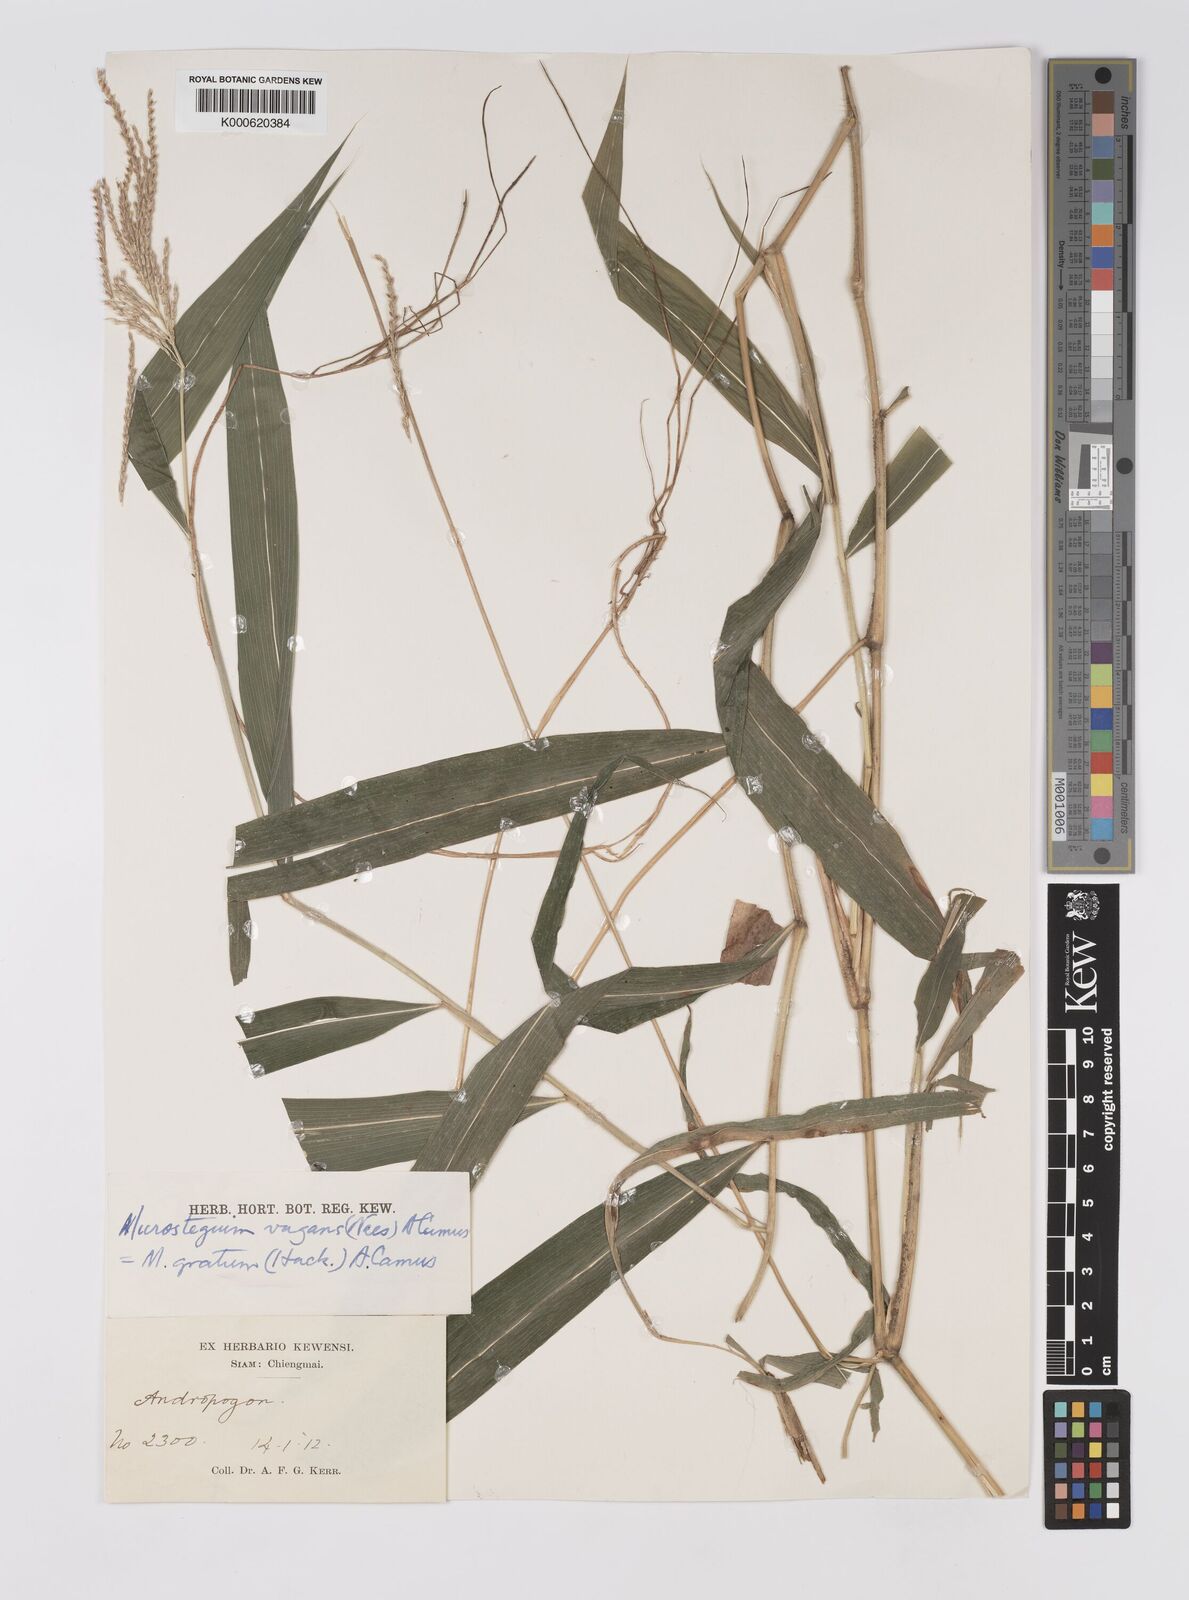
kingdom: Plantae
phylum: Tracheophyta
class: Liliopsida
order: Poales
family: Poaceae
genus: Microstegium
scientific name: Microstegium fasciculatum
